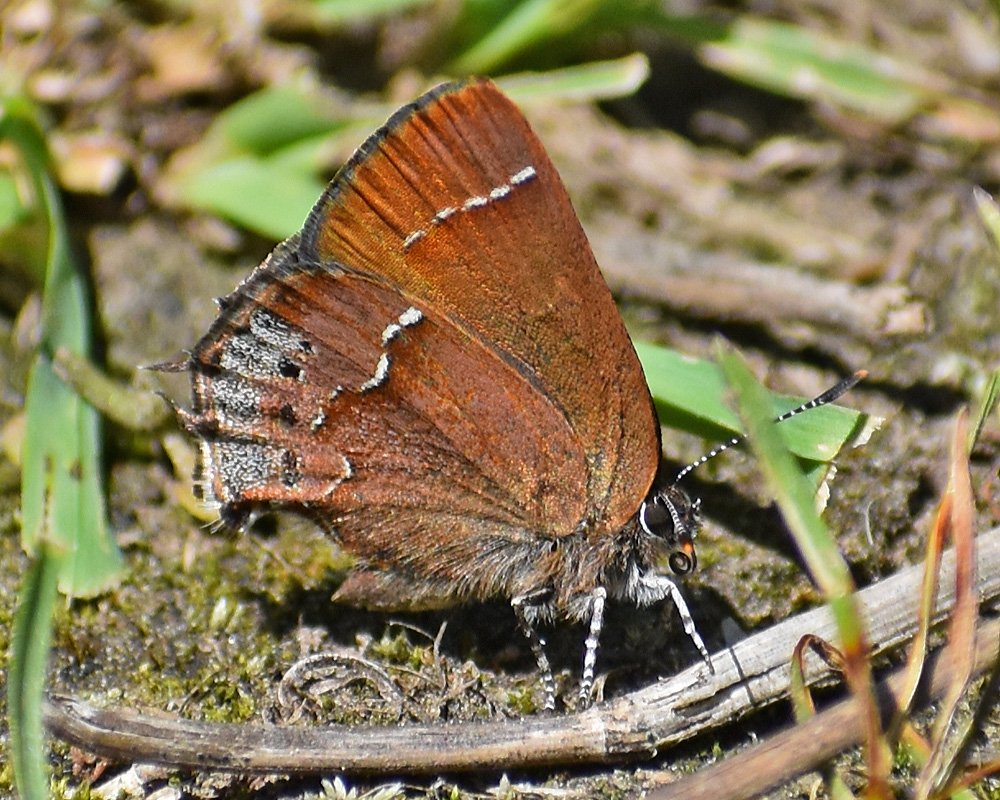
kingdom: Animalia
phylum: Arthropoda
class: Insecta
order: Lepidoptera
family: Lycaenidae
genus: Mitoura
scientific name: Mitoura nelsoni
